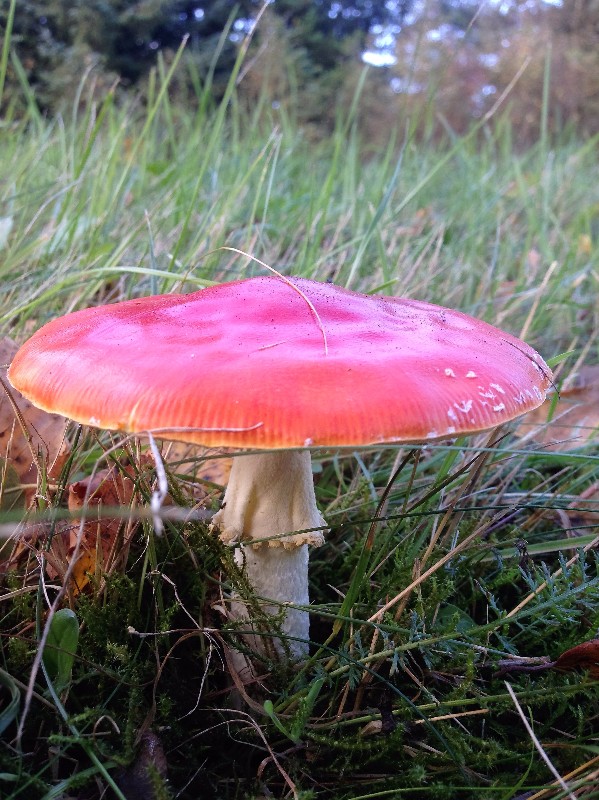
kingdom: Fungi
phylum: Basidiomycota
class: Agaricomycetes
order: Agaricales
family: Amanitaceae
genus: Amanita
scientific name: Amanita muscaria
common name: rød fluesvamp
